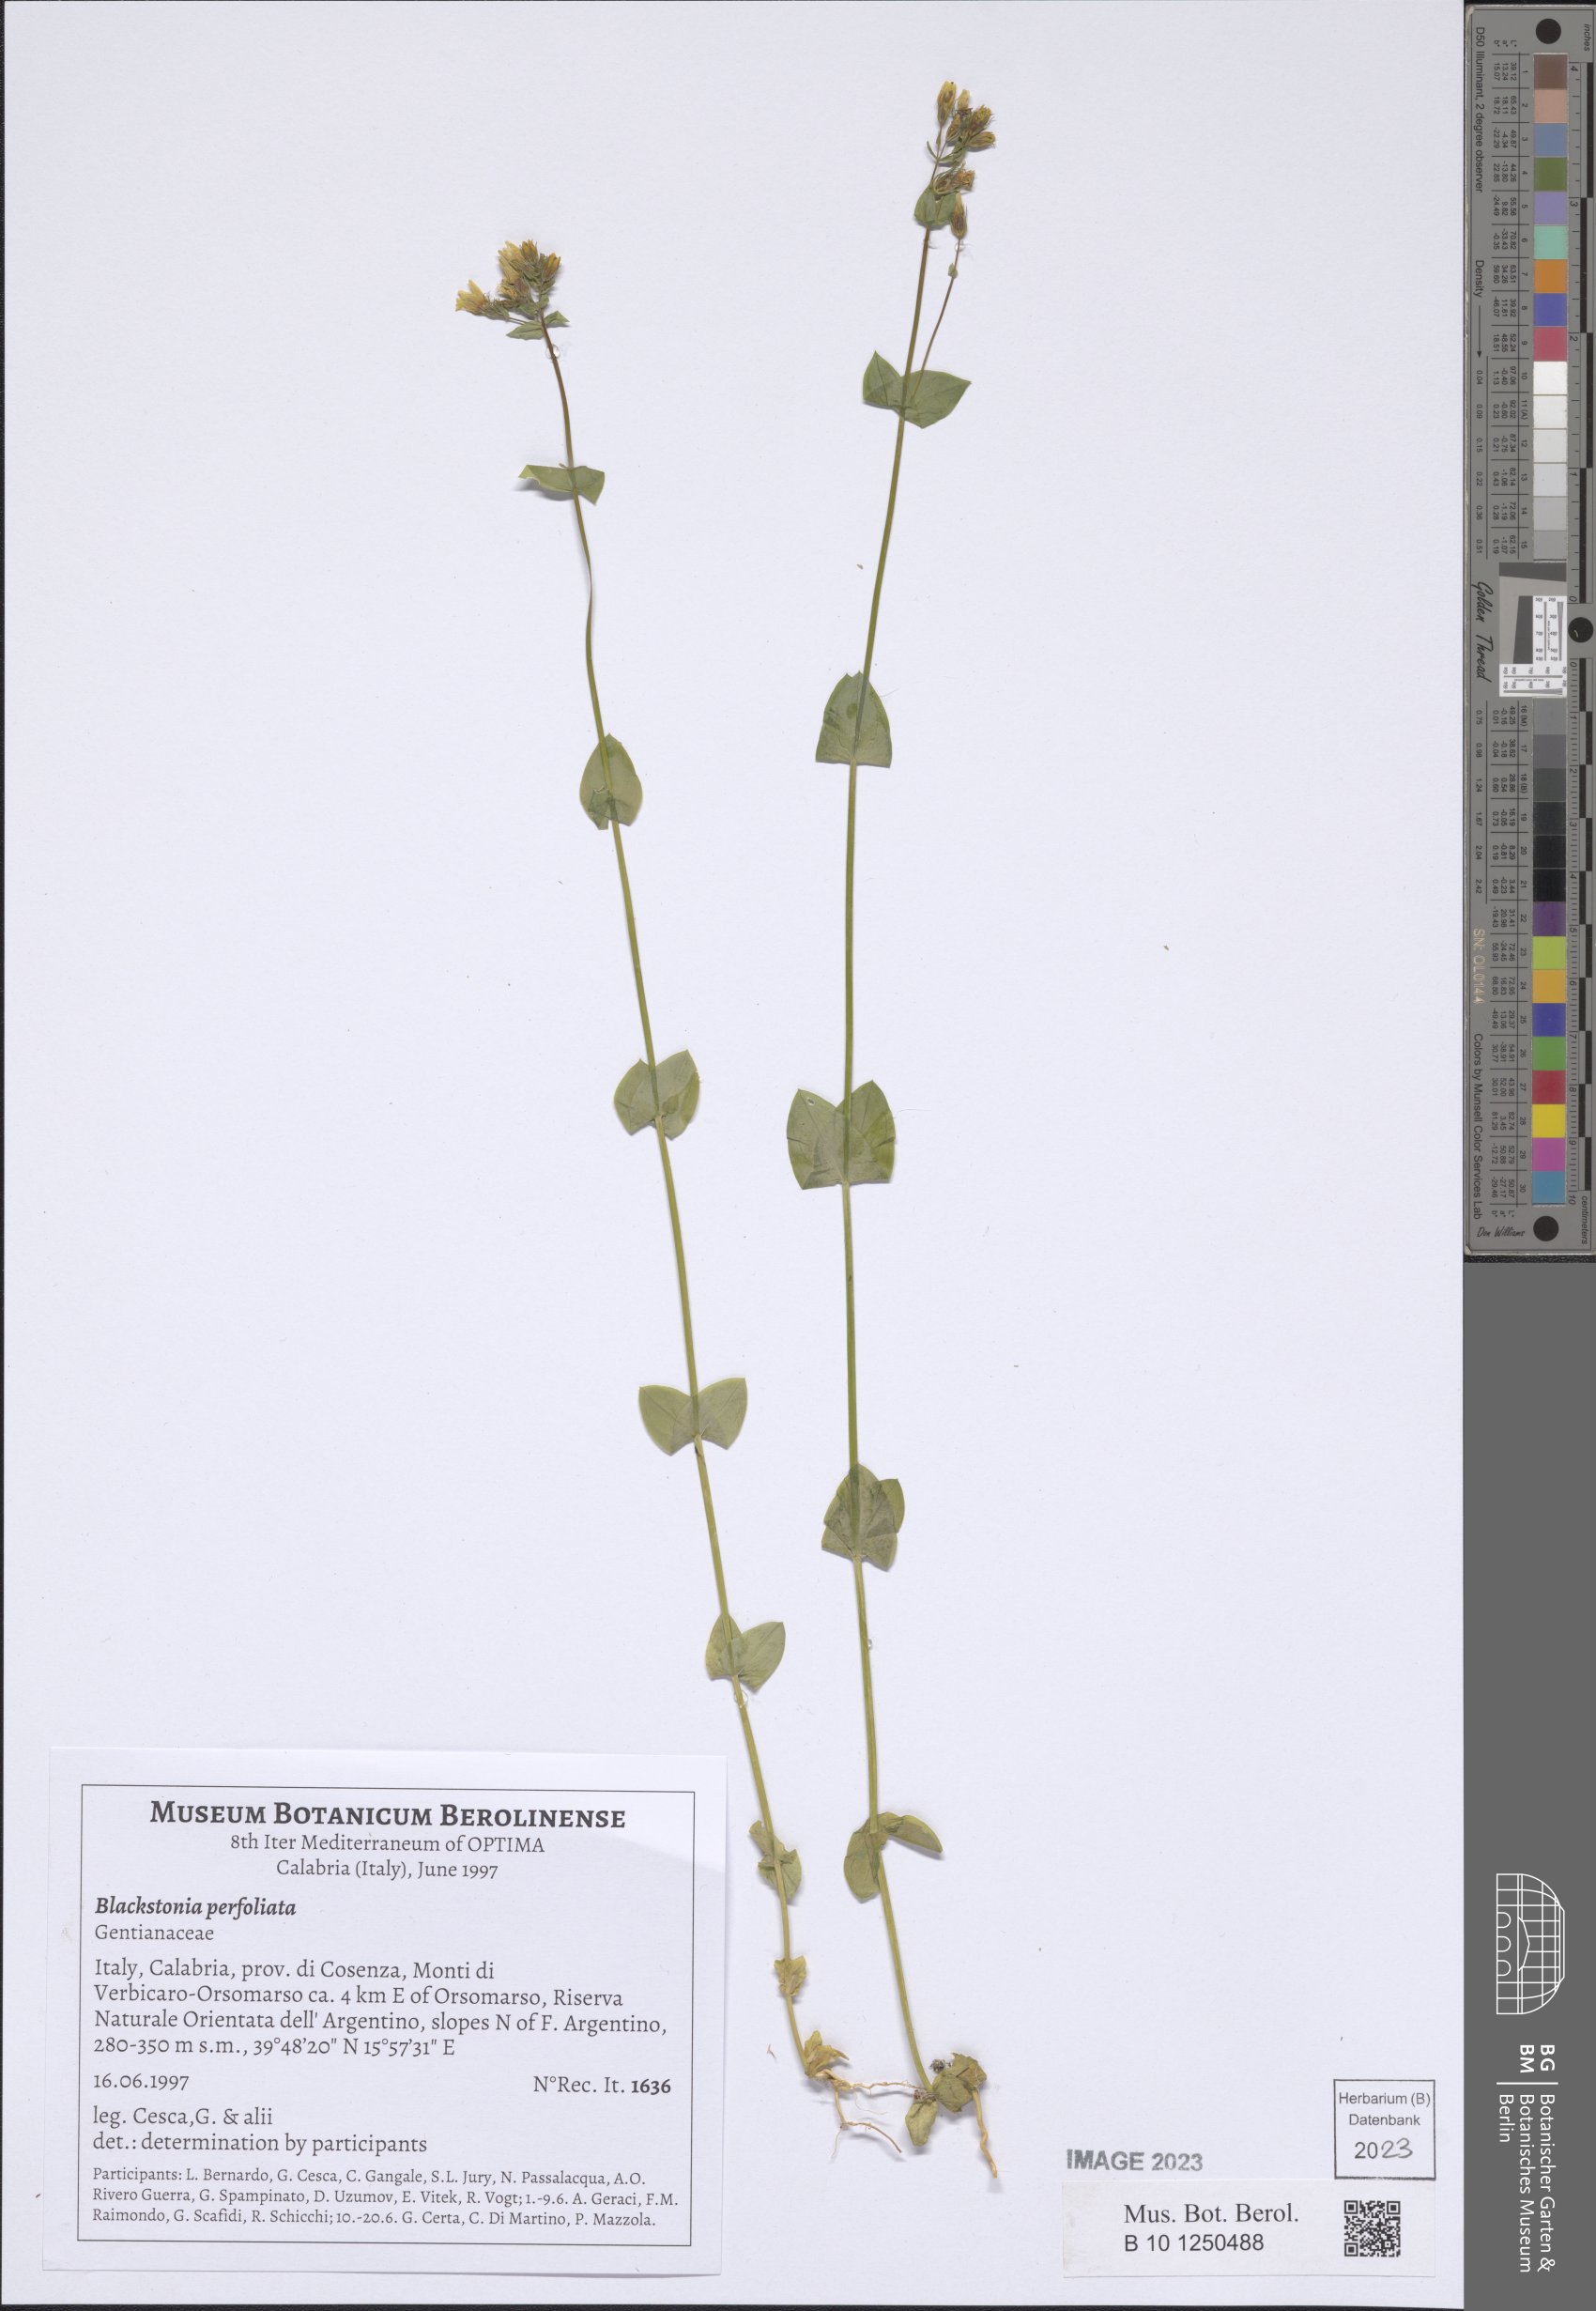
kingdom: Plantae
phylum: Tracheophyta
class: Magnoliopsida
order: Gentianales
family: Gentianaceae
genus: Blackstonia
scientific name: Blackstonia perfoliata
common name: Yellow-wort
